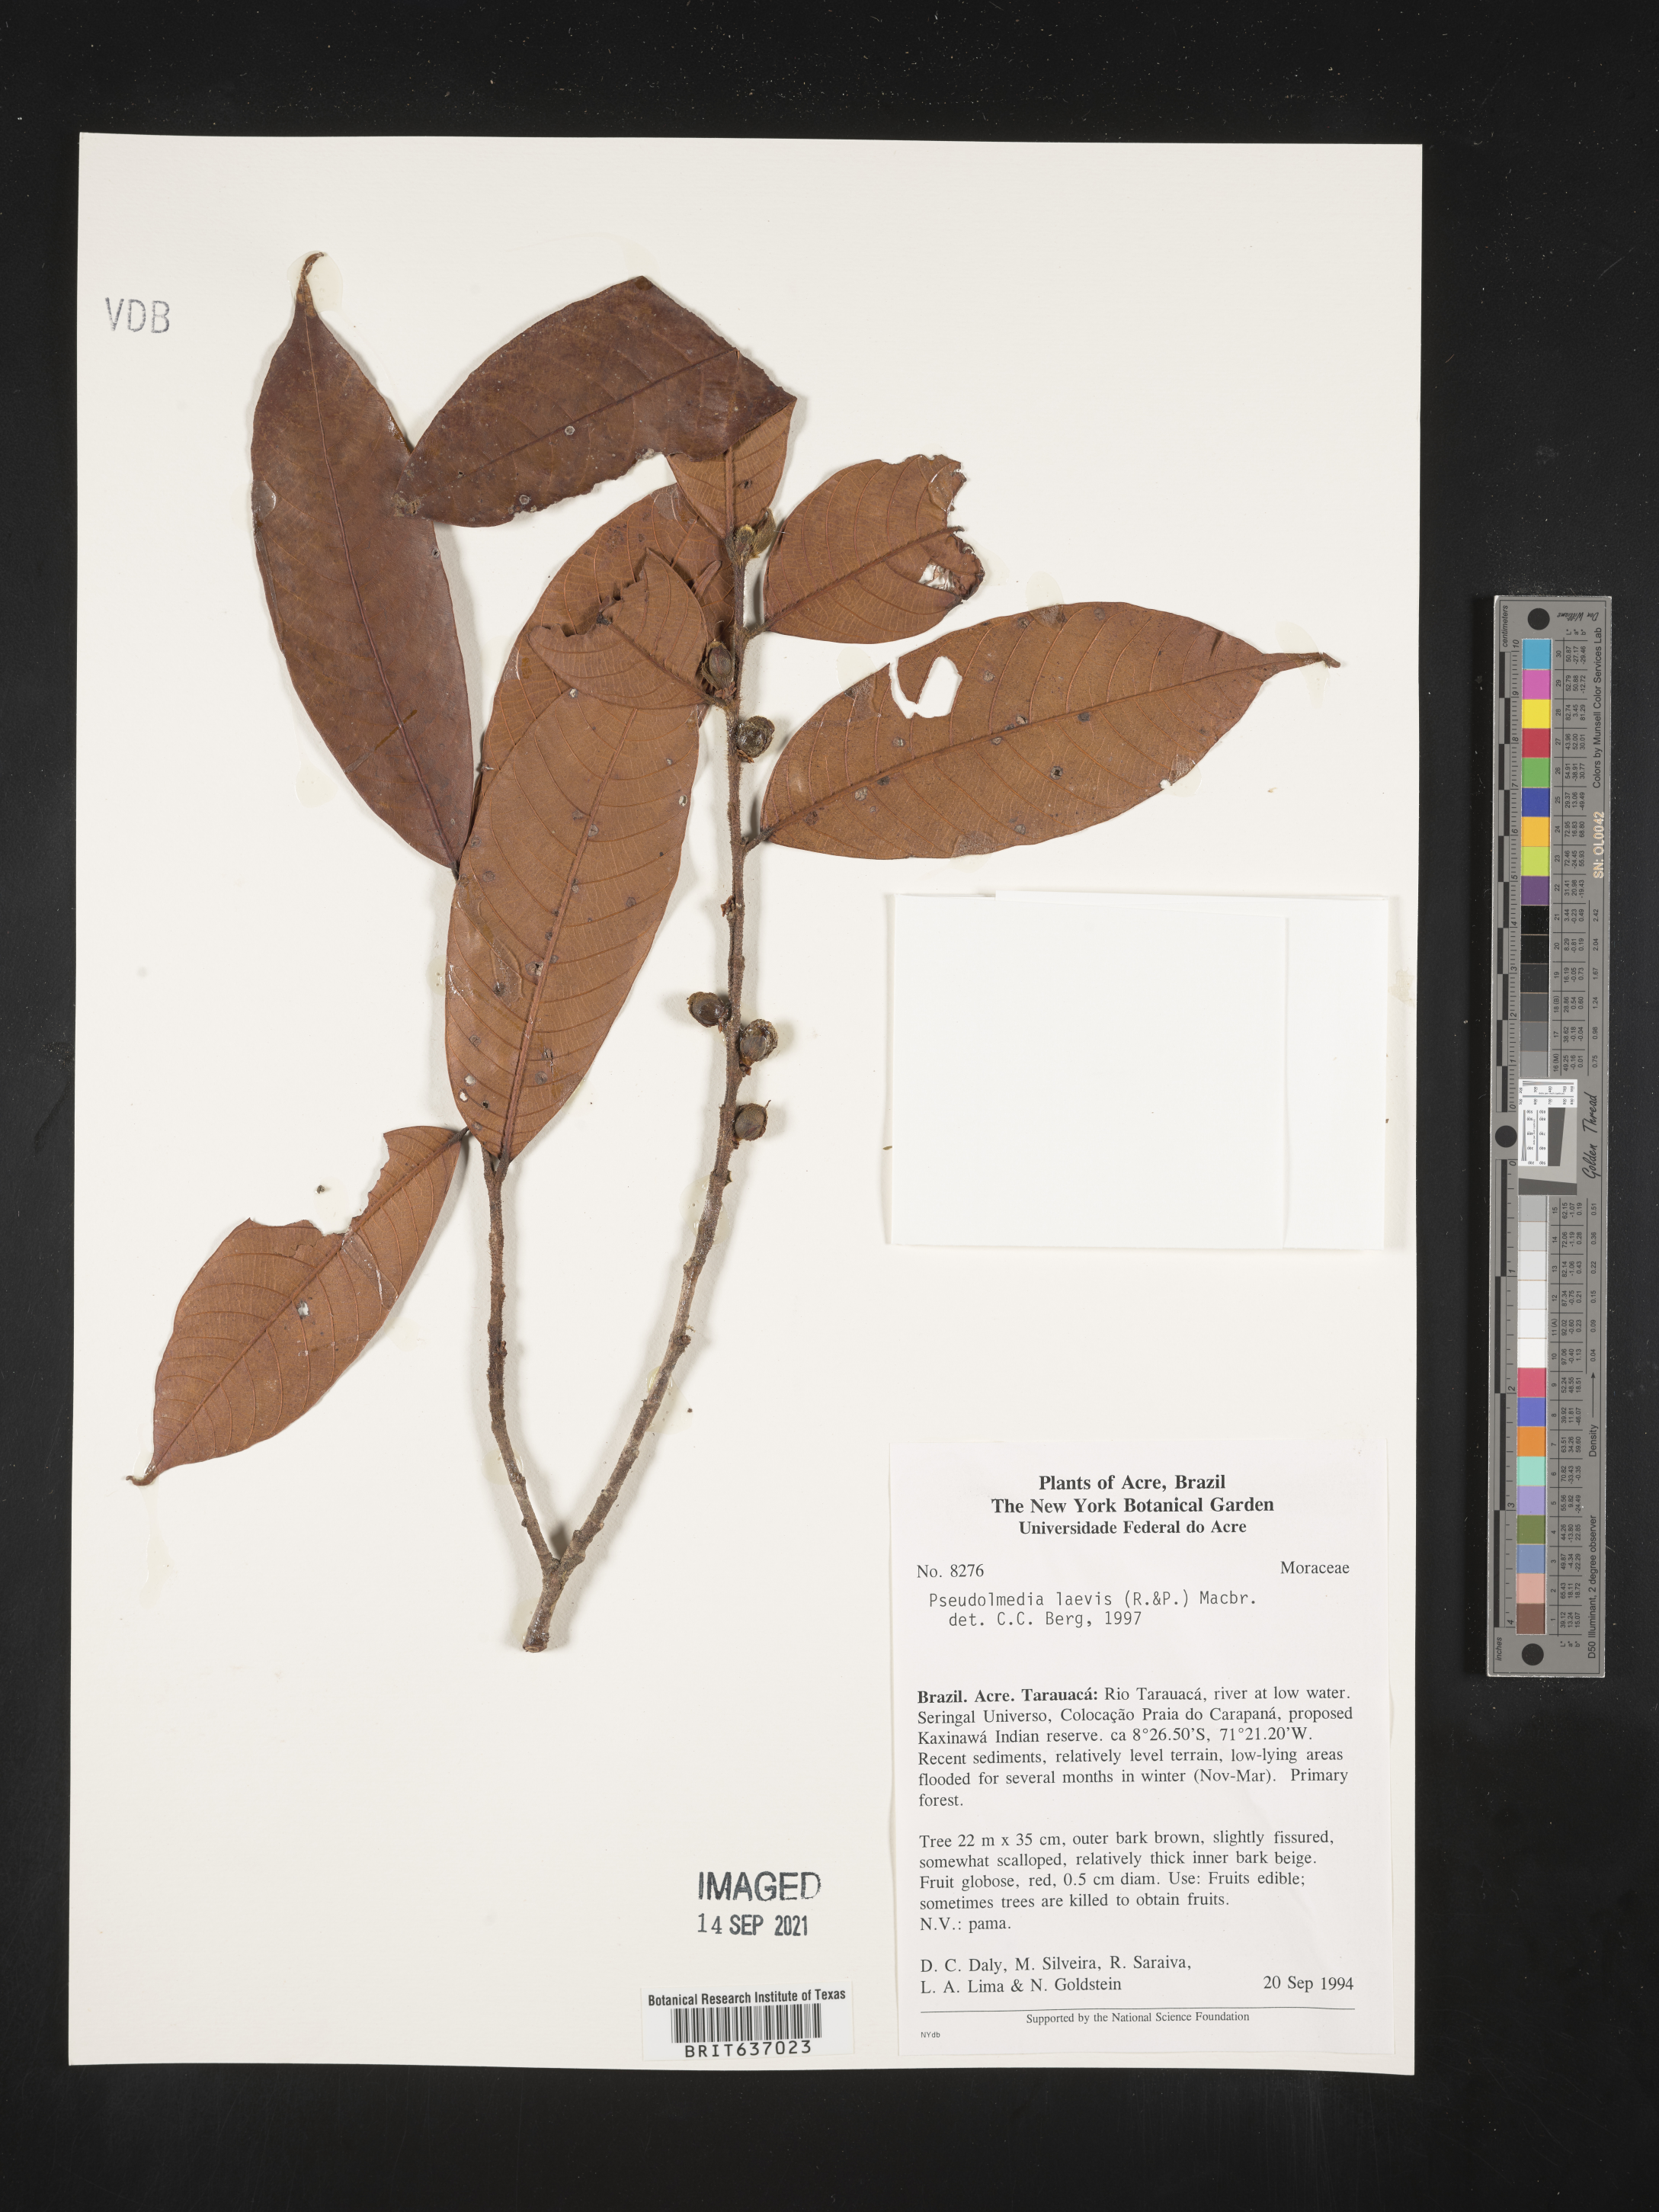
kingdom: Plantae
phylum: Tracheophyta
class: Magnoliopsida
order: Rosales
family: Moraceae
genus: Pseudolmedia
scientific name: Pseudolmedia
